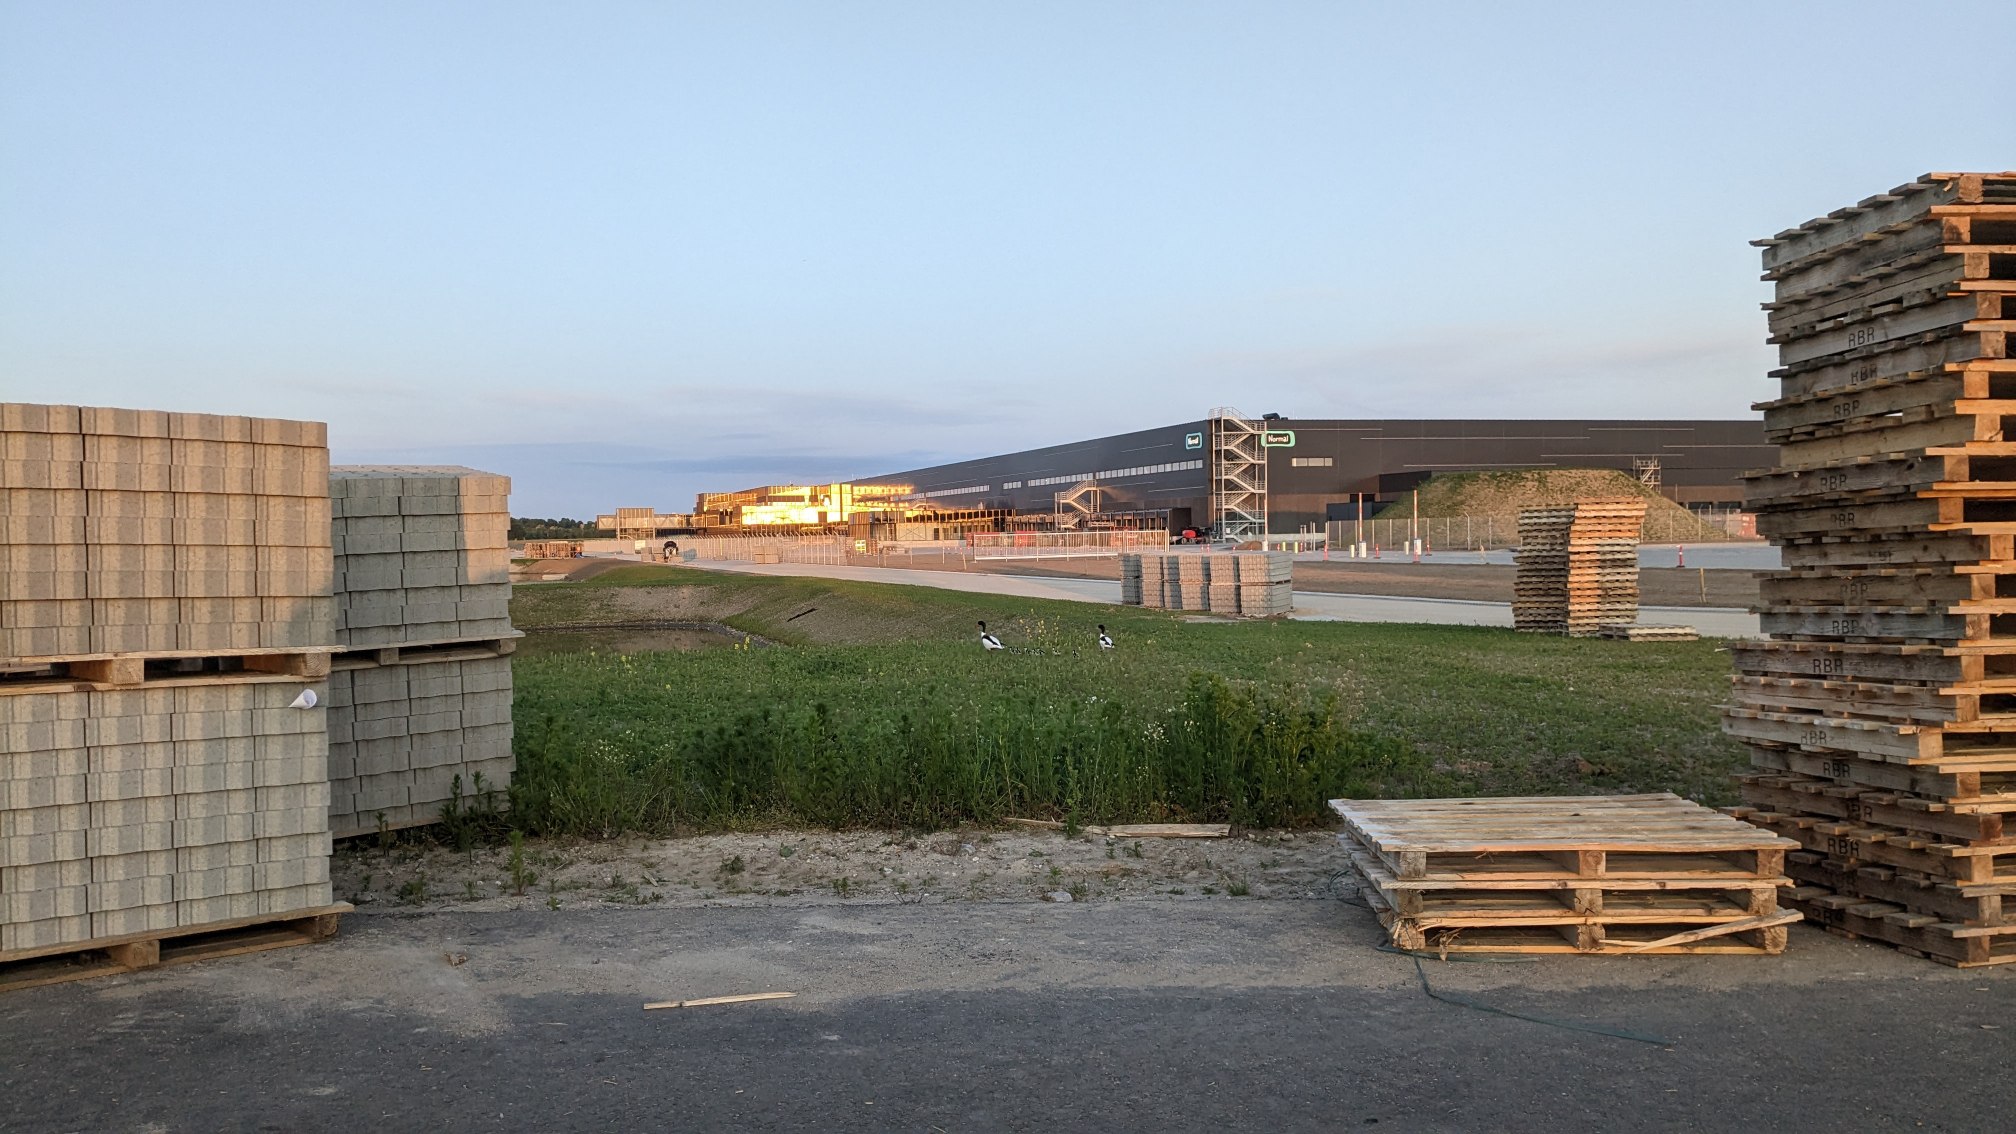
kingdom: Animalia
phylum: Chordata
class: Aves
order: Anseriformes
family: Anatidae
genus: Tadorna
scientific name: Tadorna tadorna
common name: Gravand
